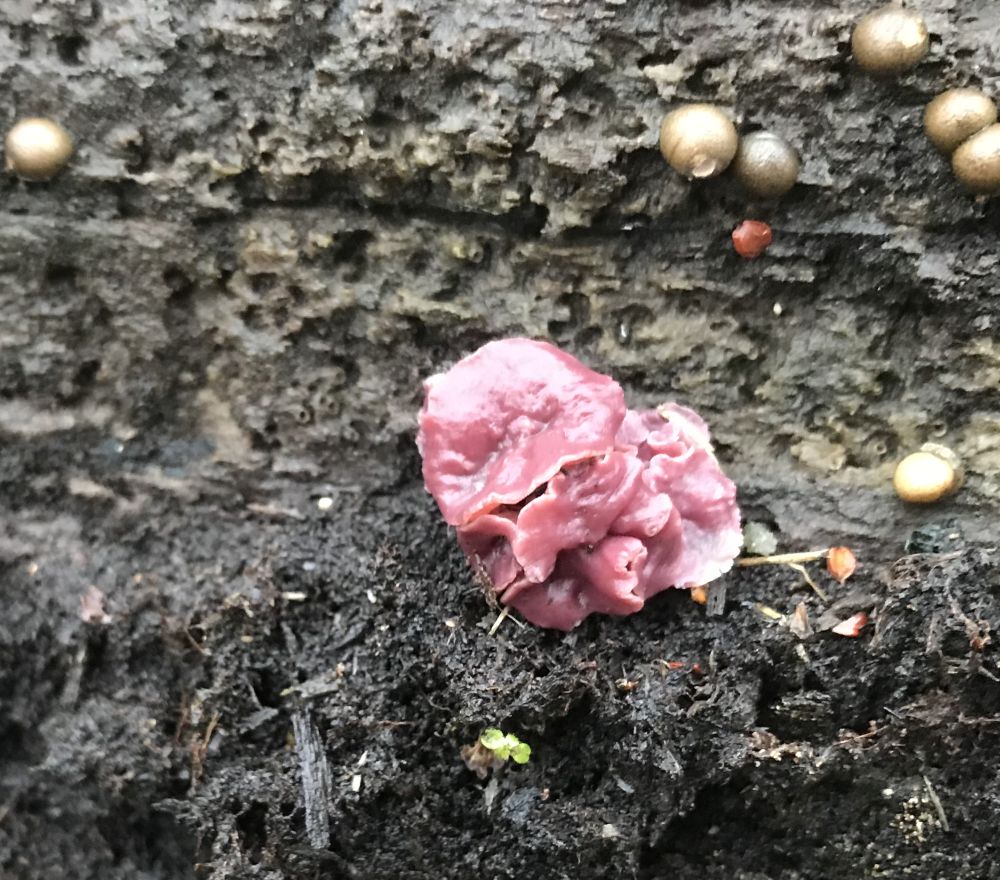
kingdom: Fungi
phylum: Ascomycota
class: Leotiomycetes
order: Helotiales
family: Gelatinodiscaceae
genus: Ascocoryne
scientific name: Ascocoryne
